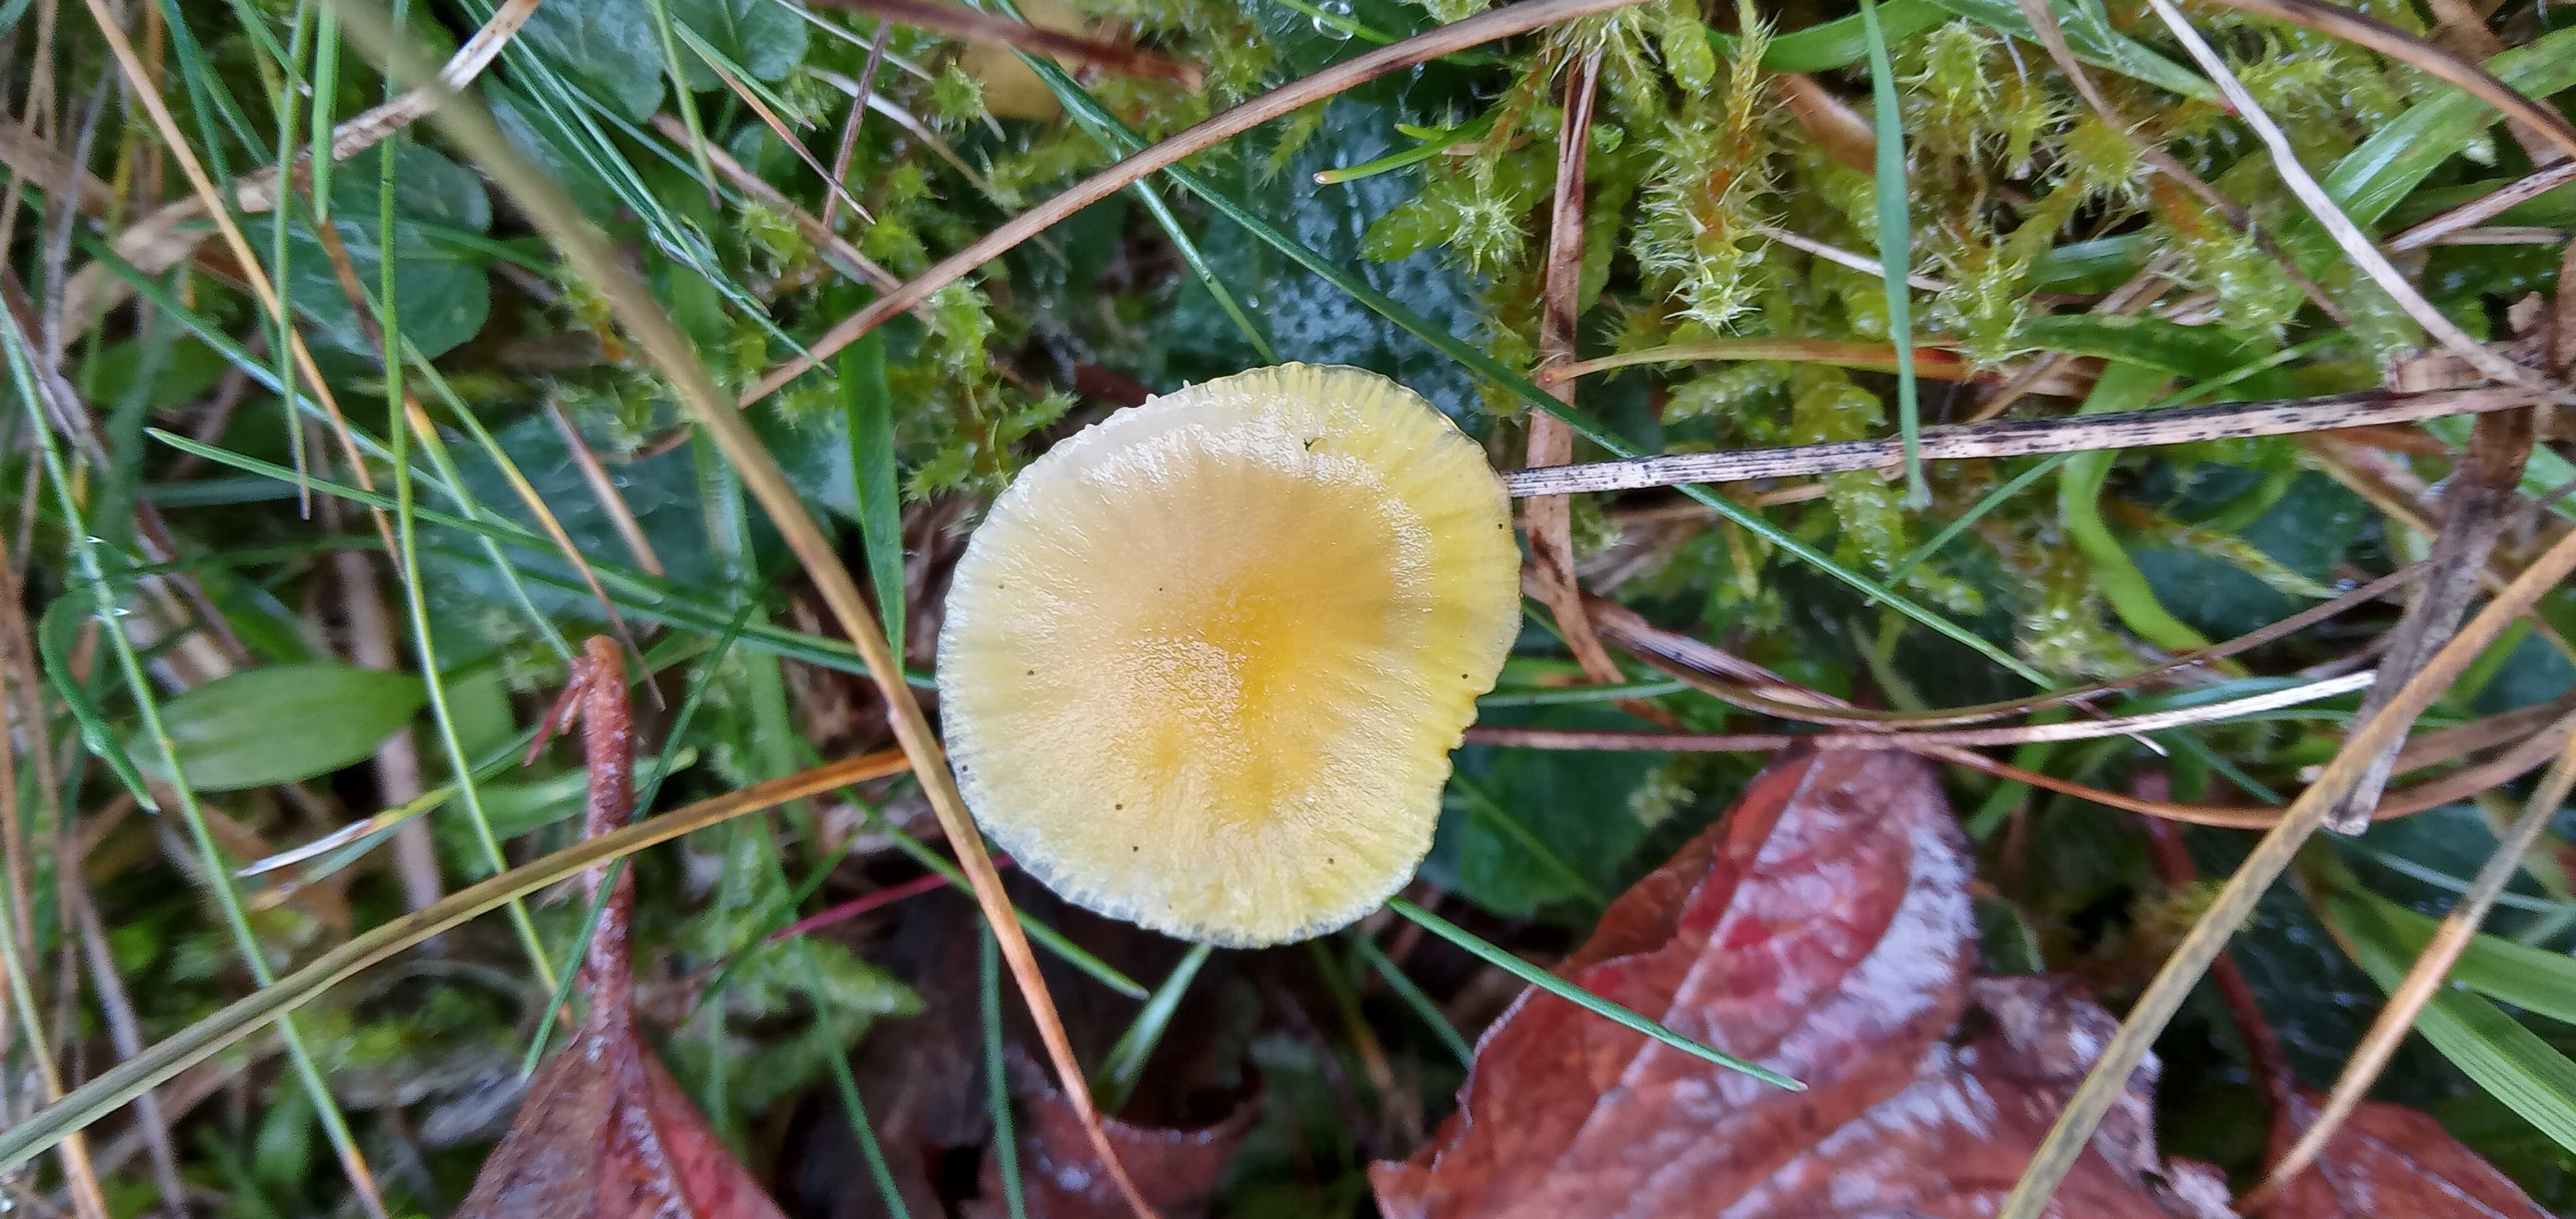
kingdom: Fungi
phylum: Basidiomycota
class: Agaricomycetes
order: Agaricales
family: Hygrophoraceae
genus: Hygrocybe
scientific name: Hygrocybe
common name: vokshat
